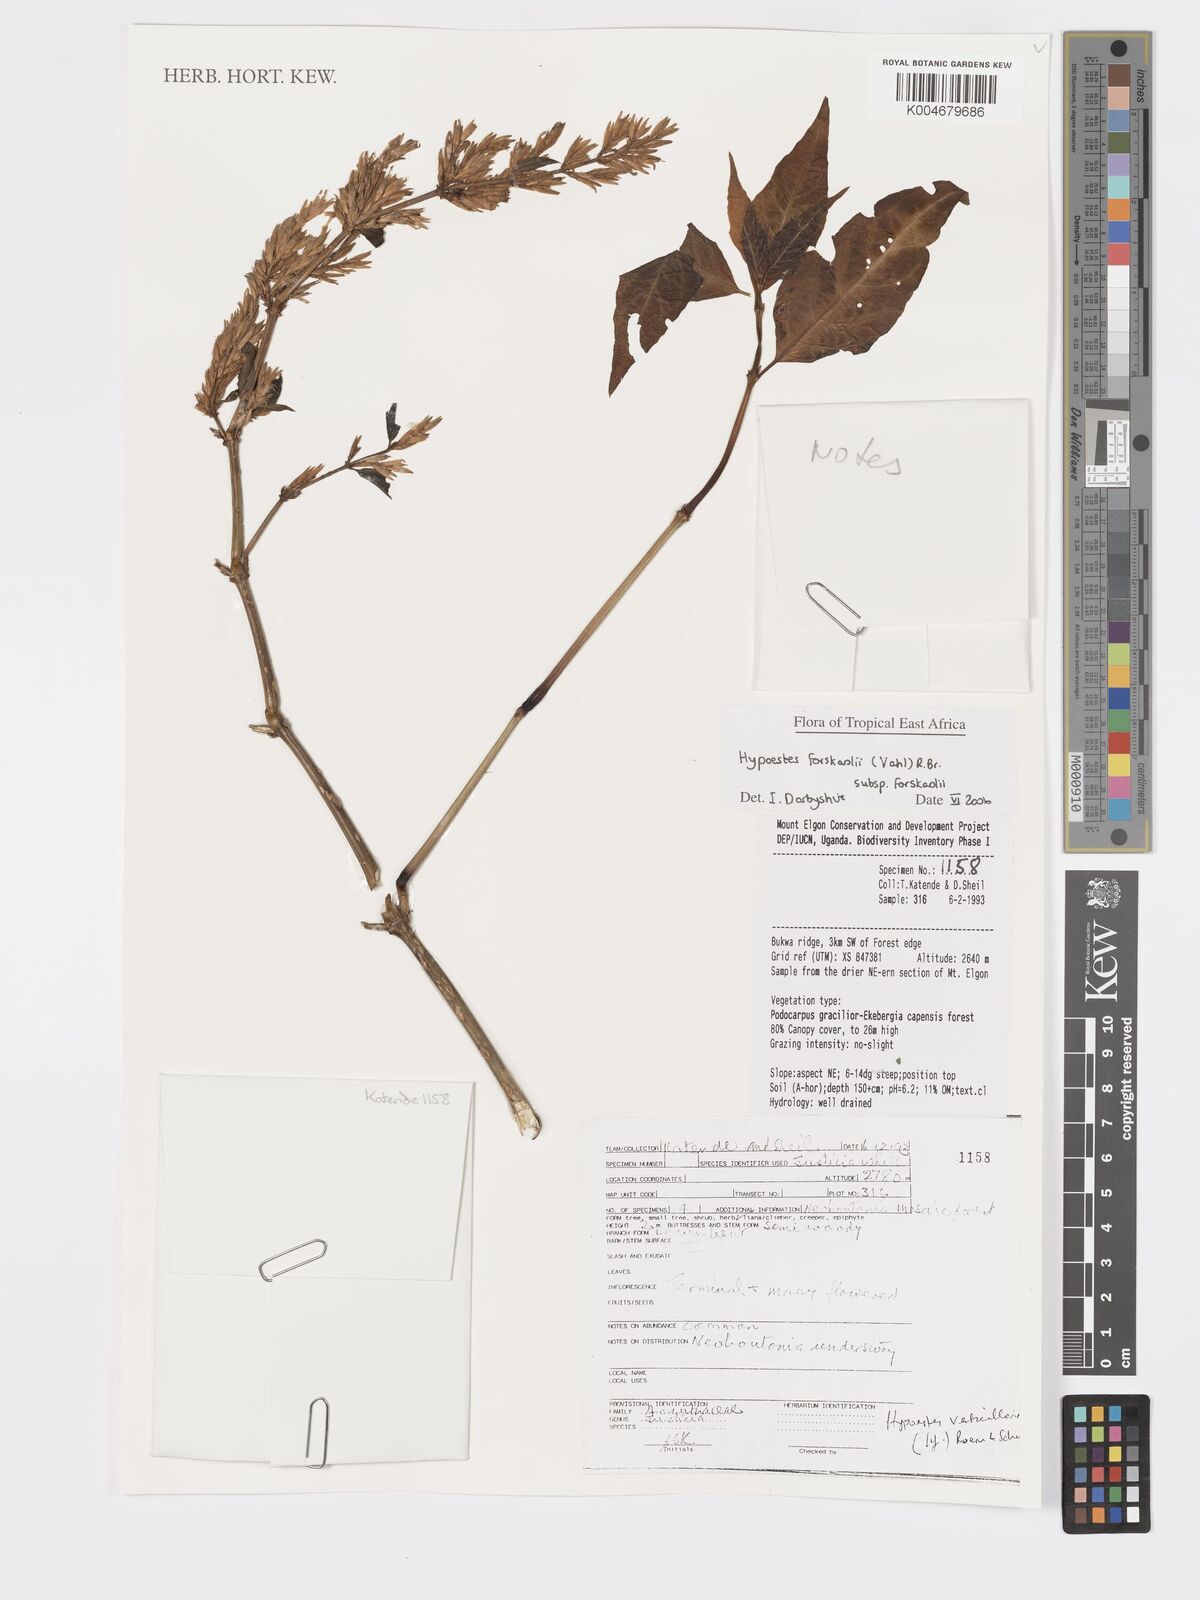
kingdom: Plantae
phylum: Tracheophyta
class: Magnoliopsida
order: Lamiales
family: Acanthaceae
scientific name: Acanthaceae
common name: Acanthaceae
